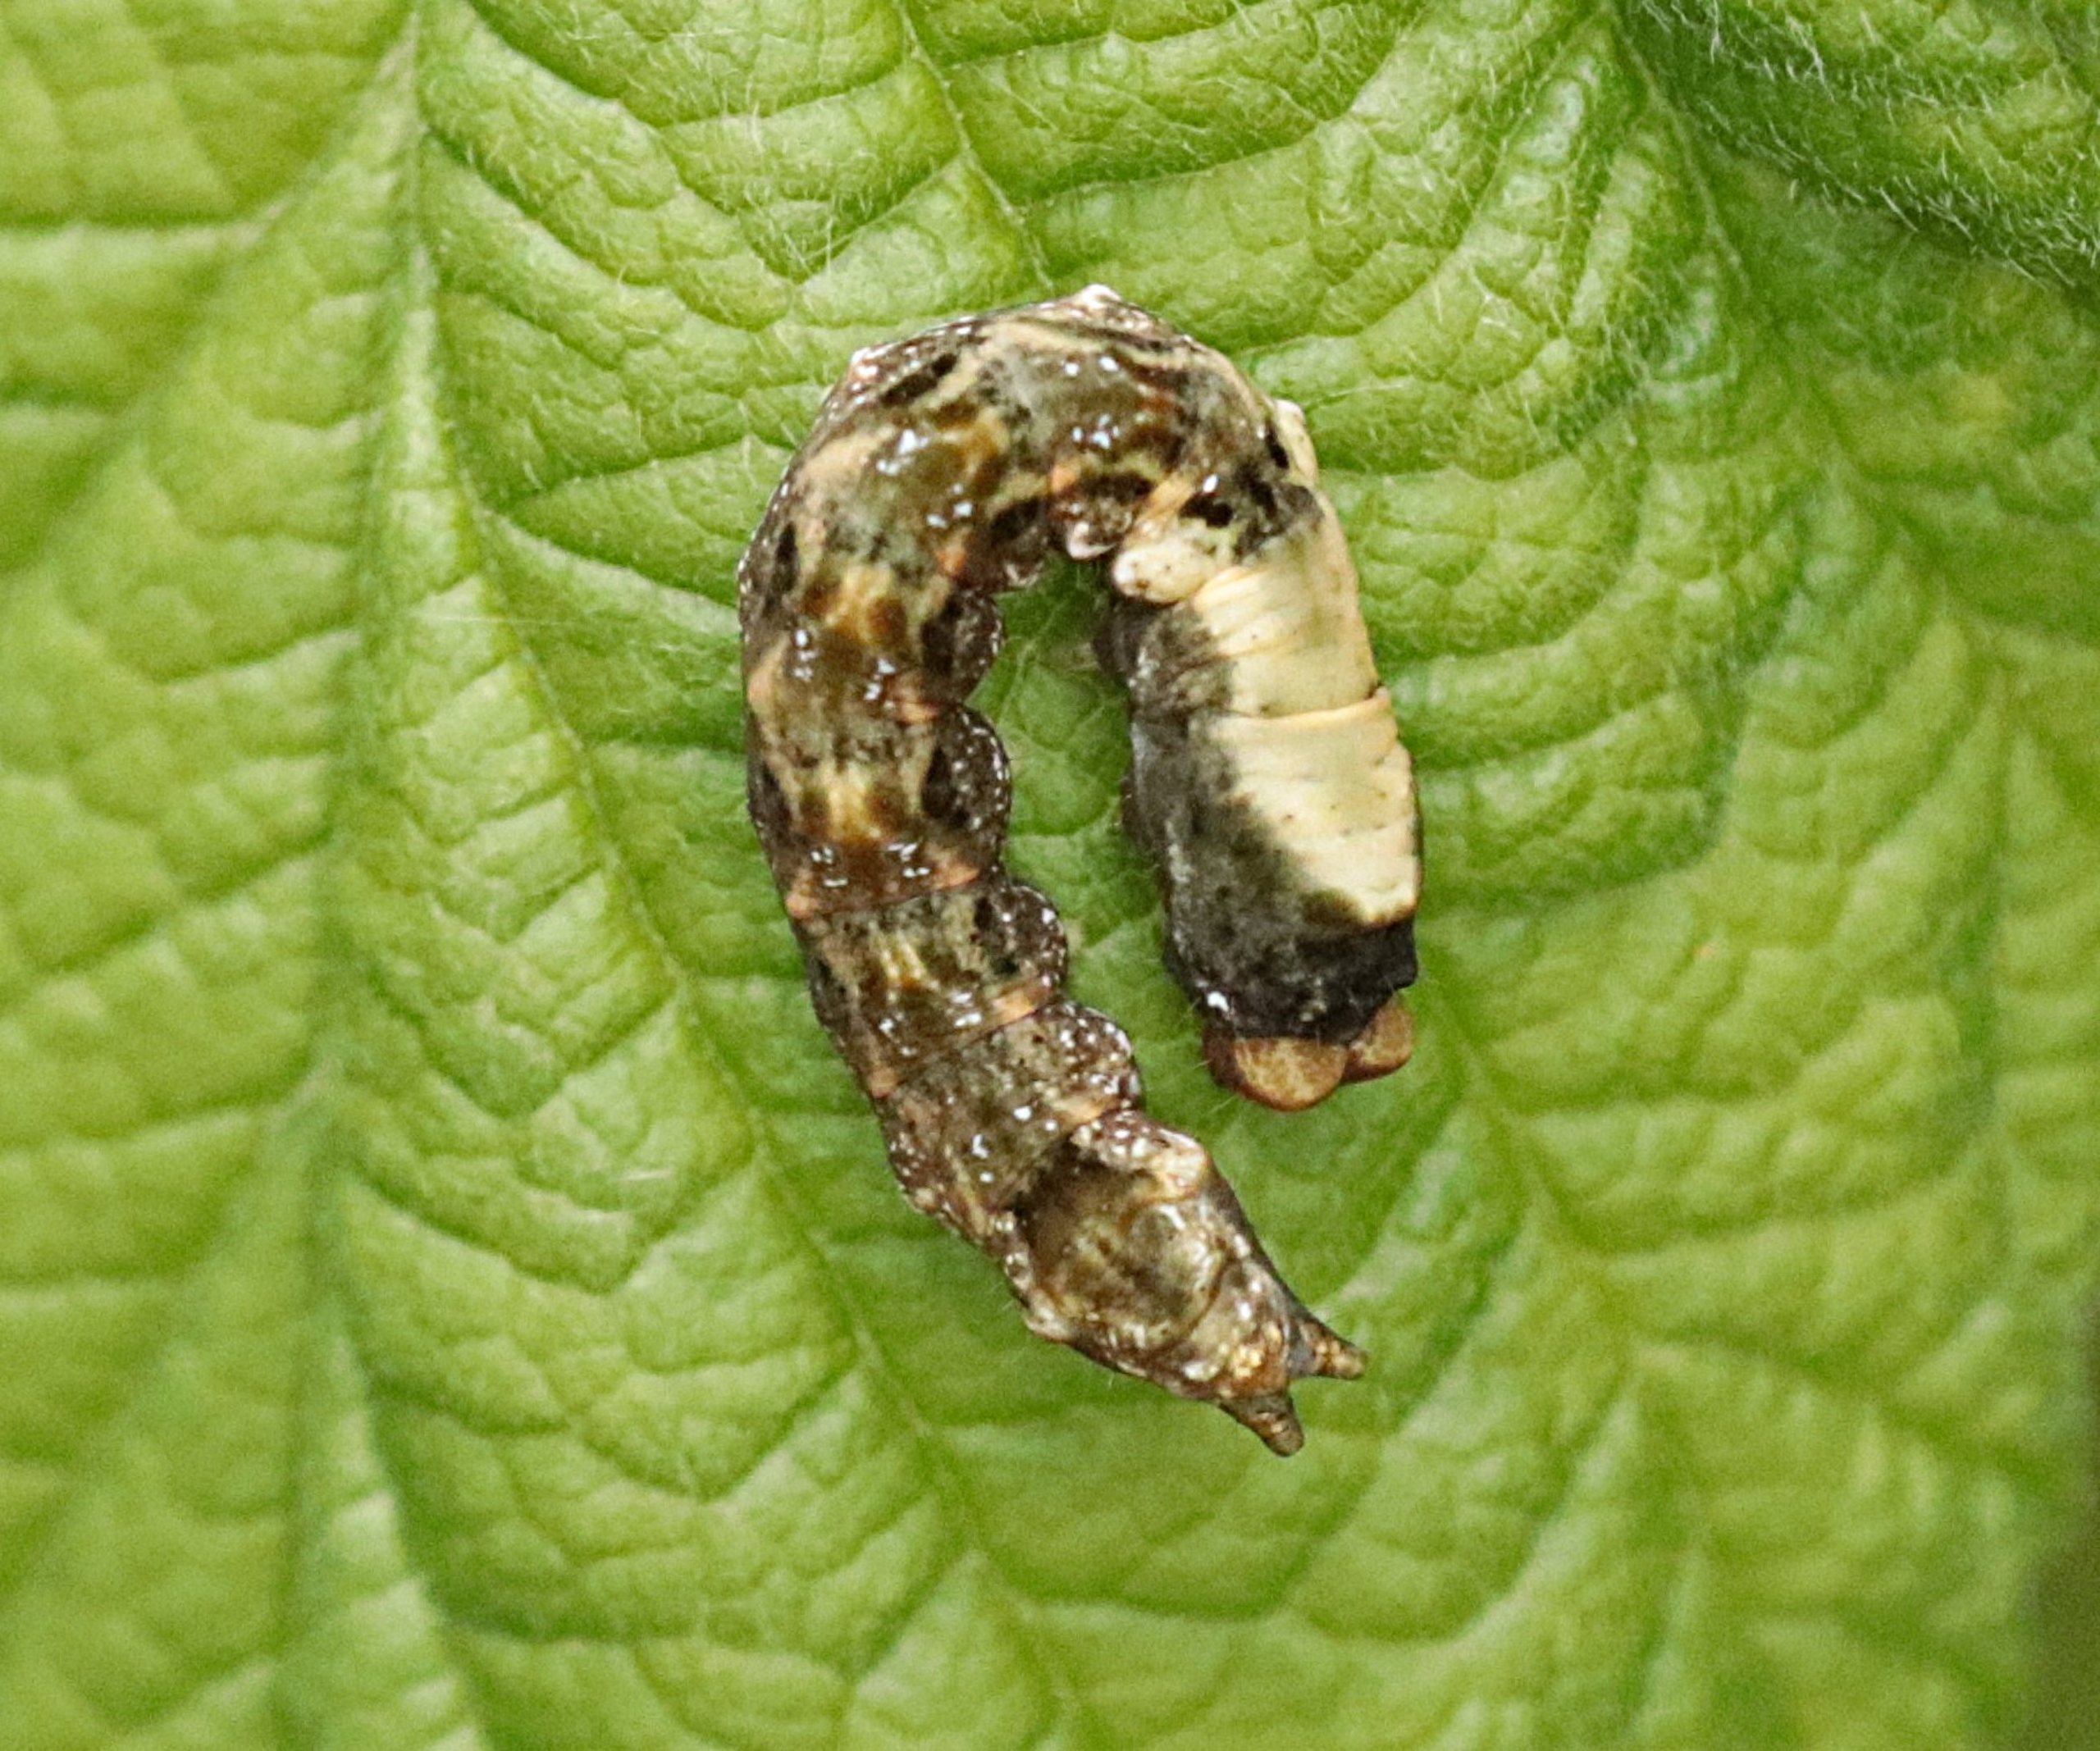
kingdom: Animalia
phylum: Arthropoda
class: Insecta
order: Lepidoptera
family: Drepanidae
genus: Thyatira
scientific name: Thyatira batis
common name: Rosenplet
